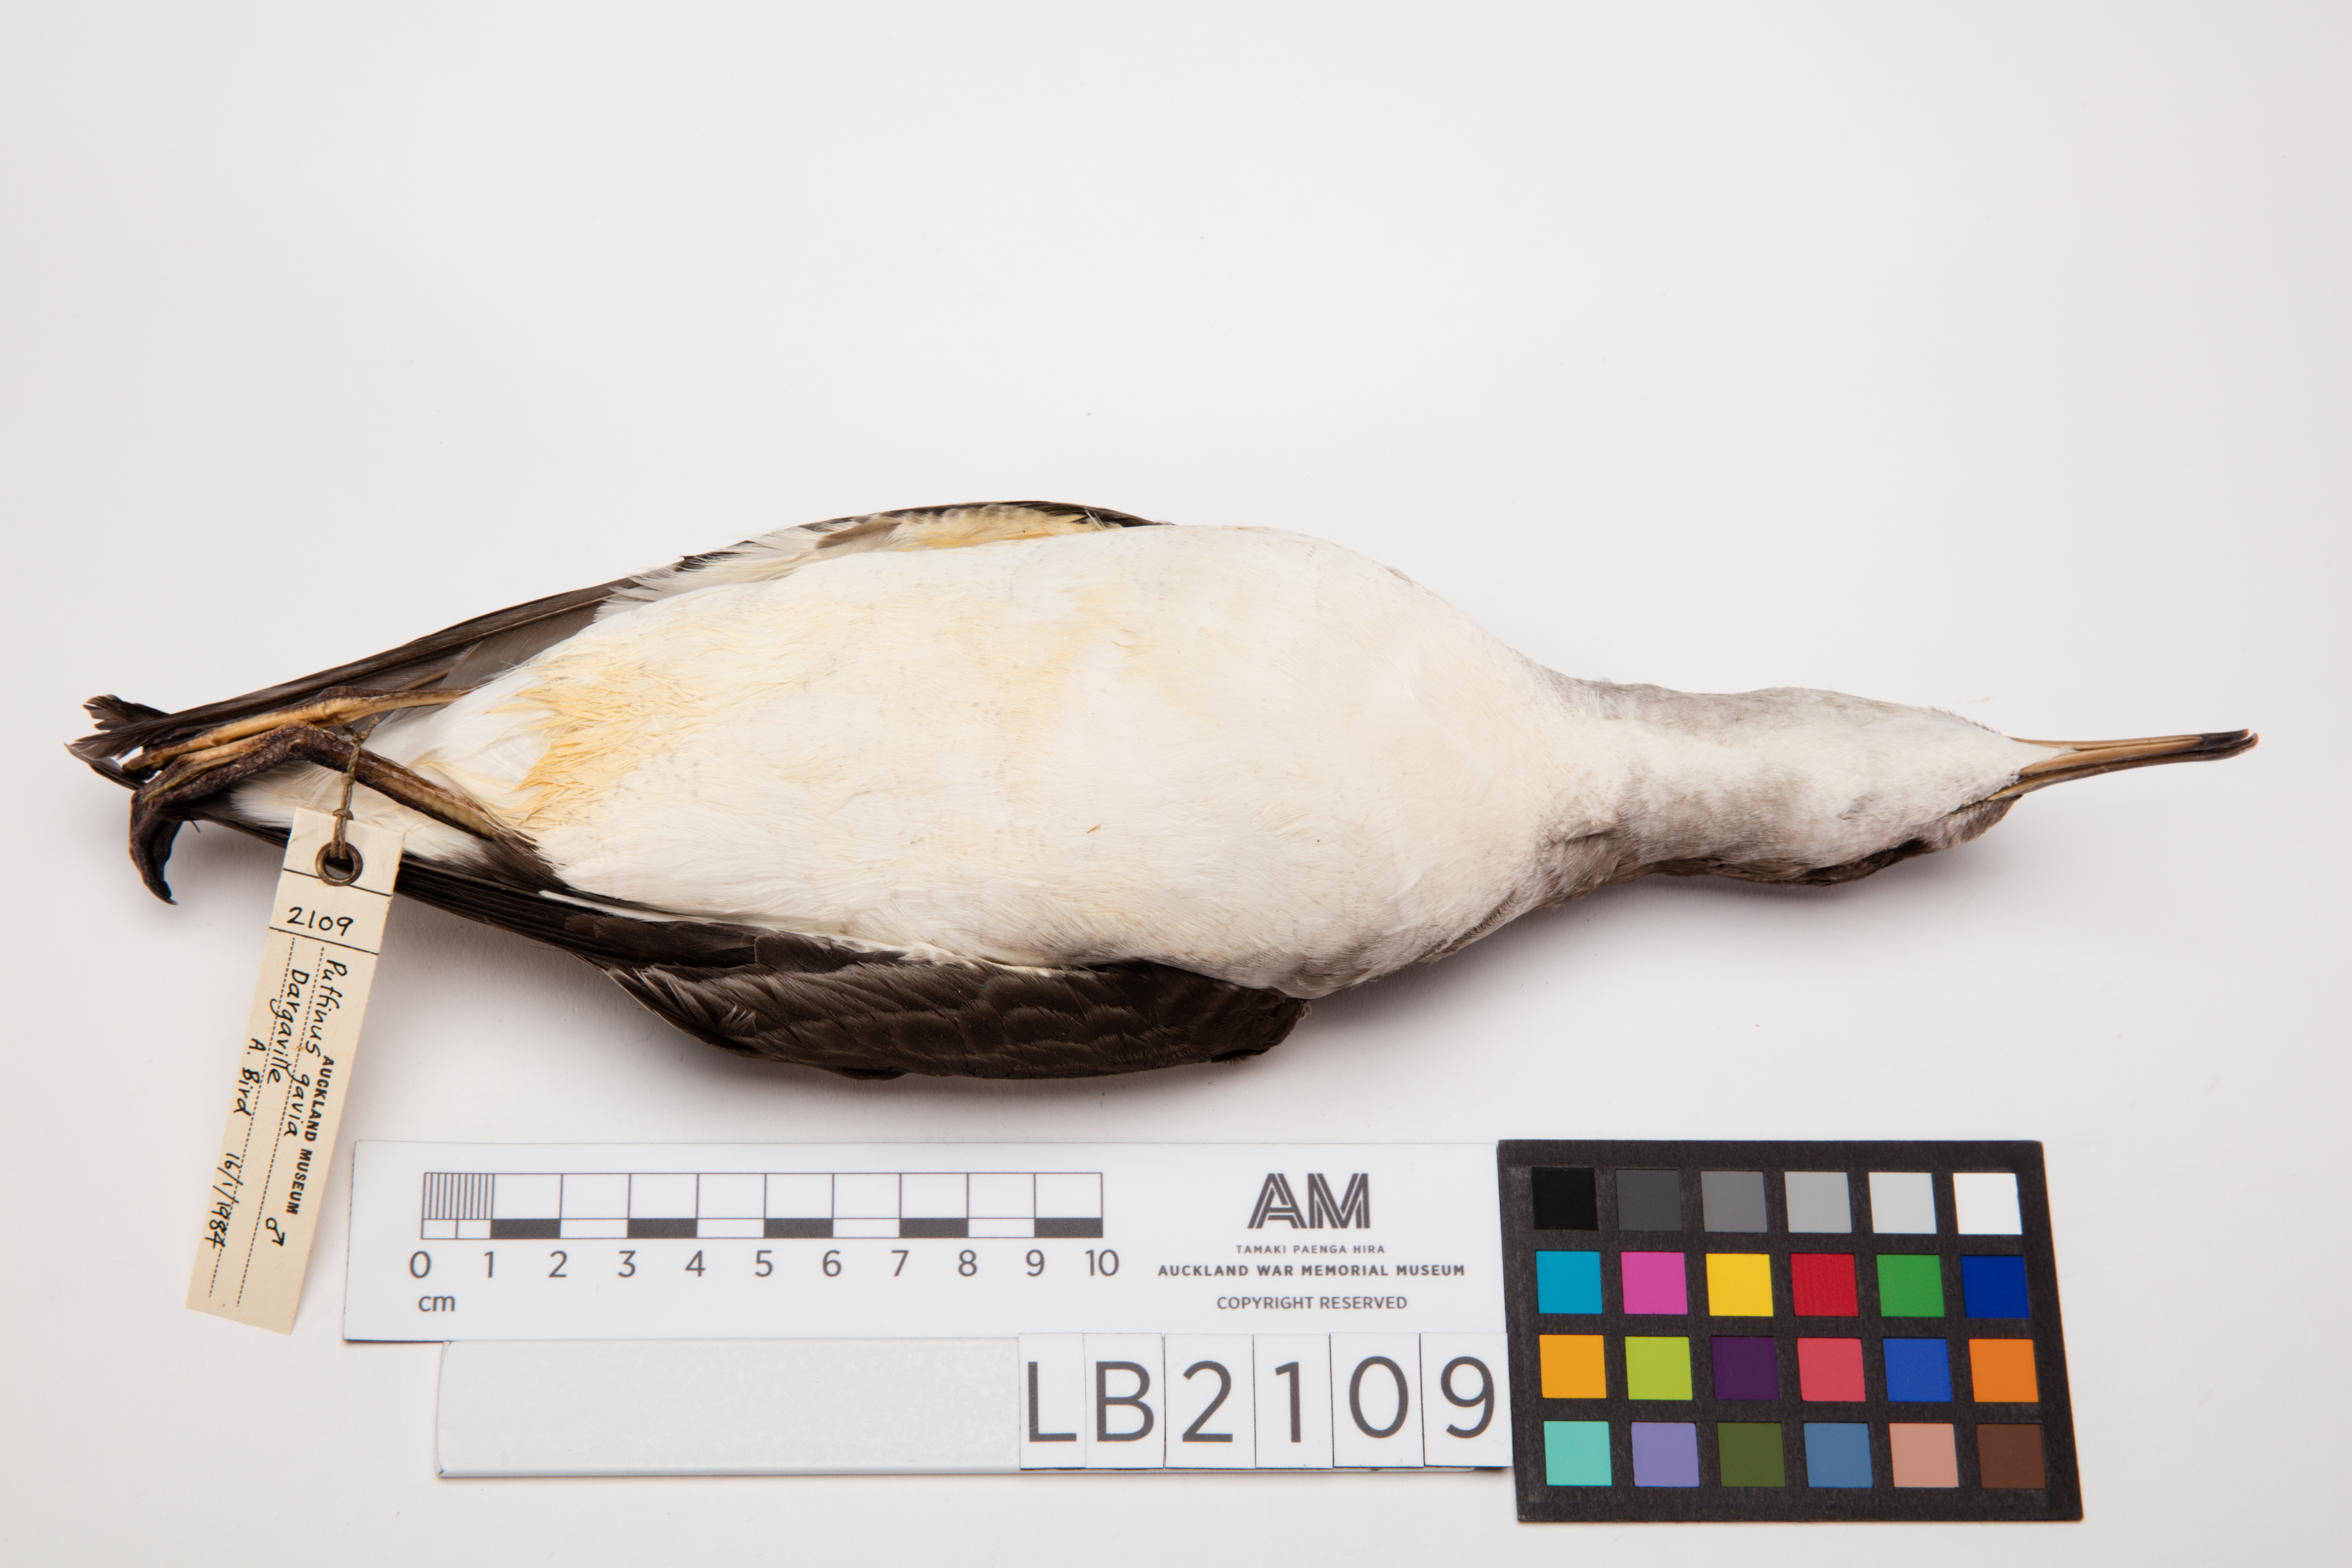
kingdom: Animalia
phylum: Chordata
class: Aves
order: Procellariiformes
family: Procellariidae
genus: Ardenna
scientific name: Ardenna
